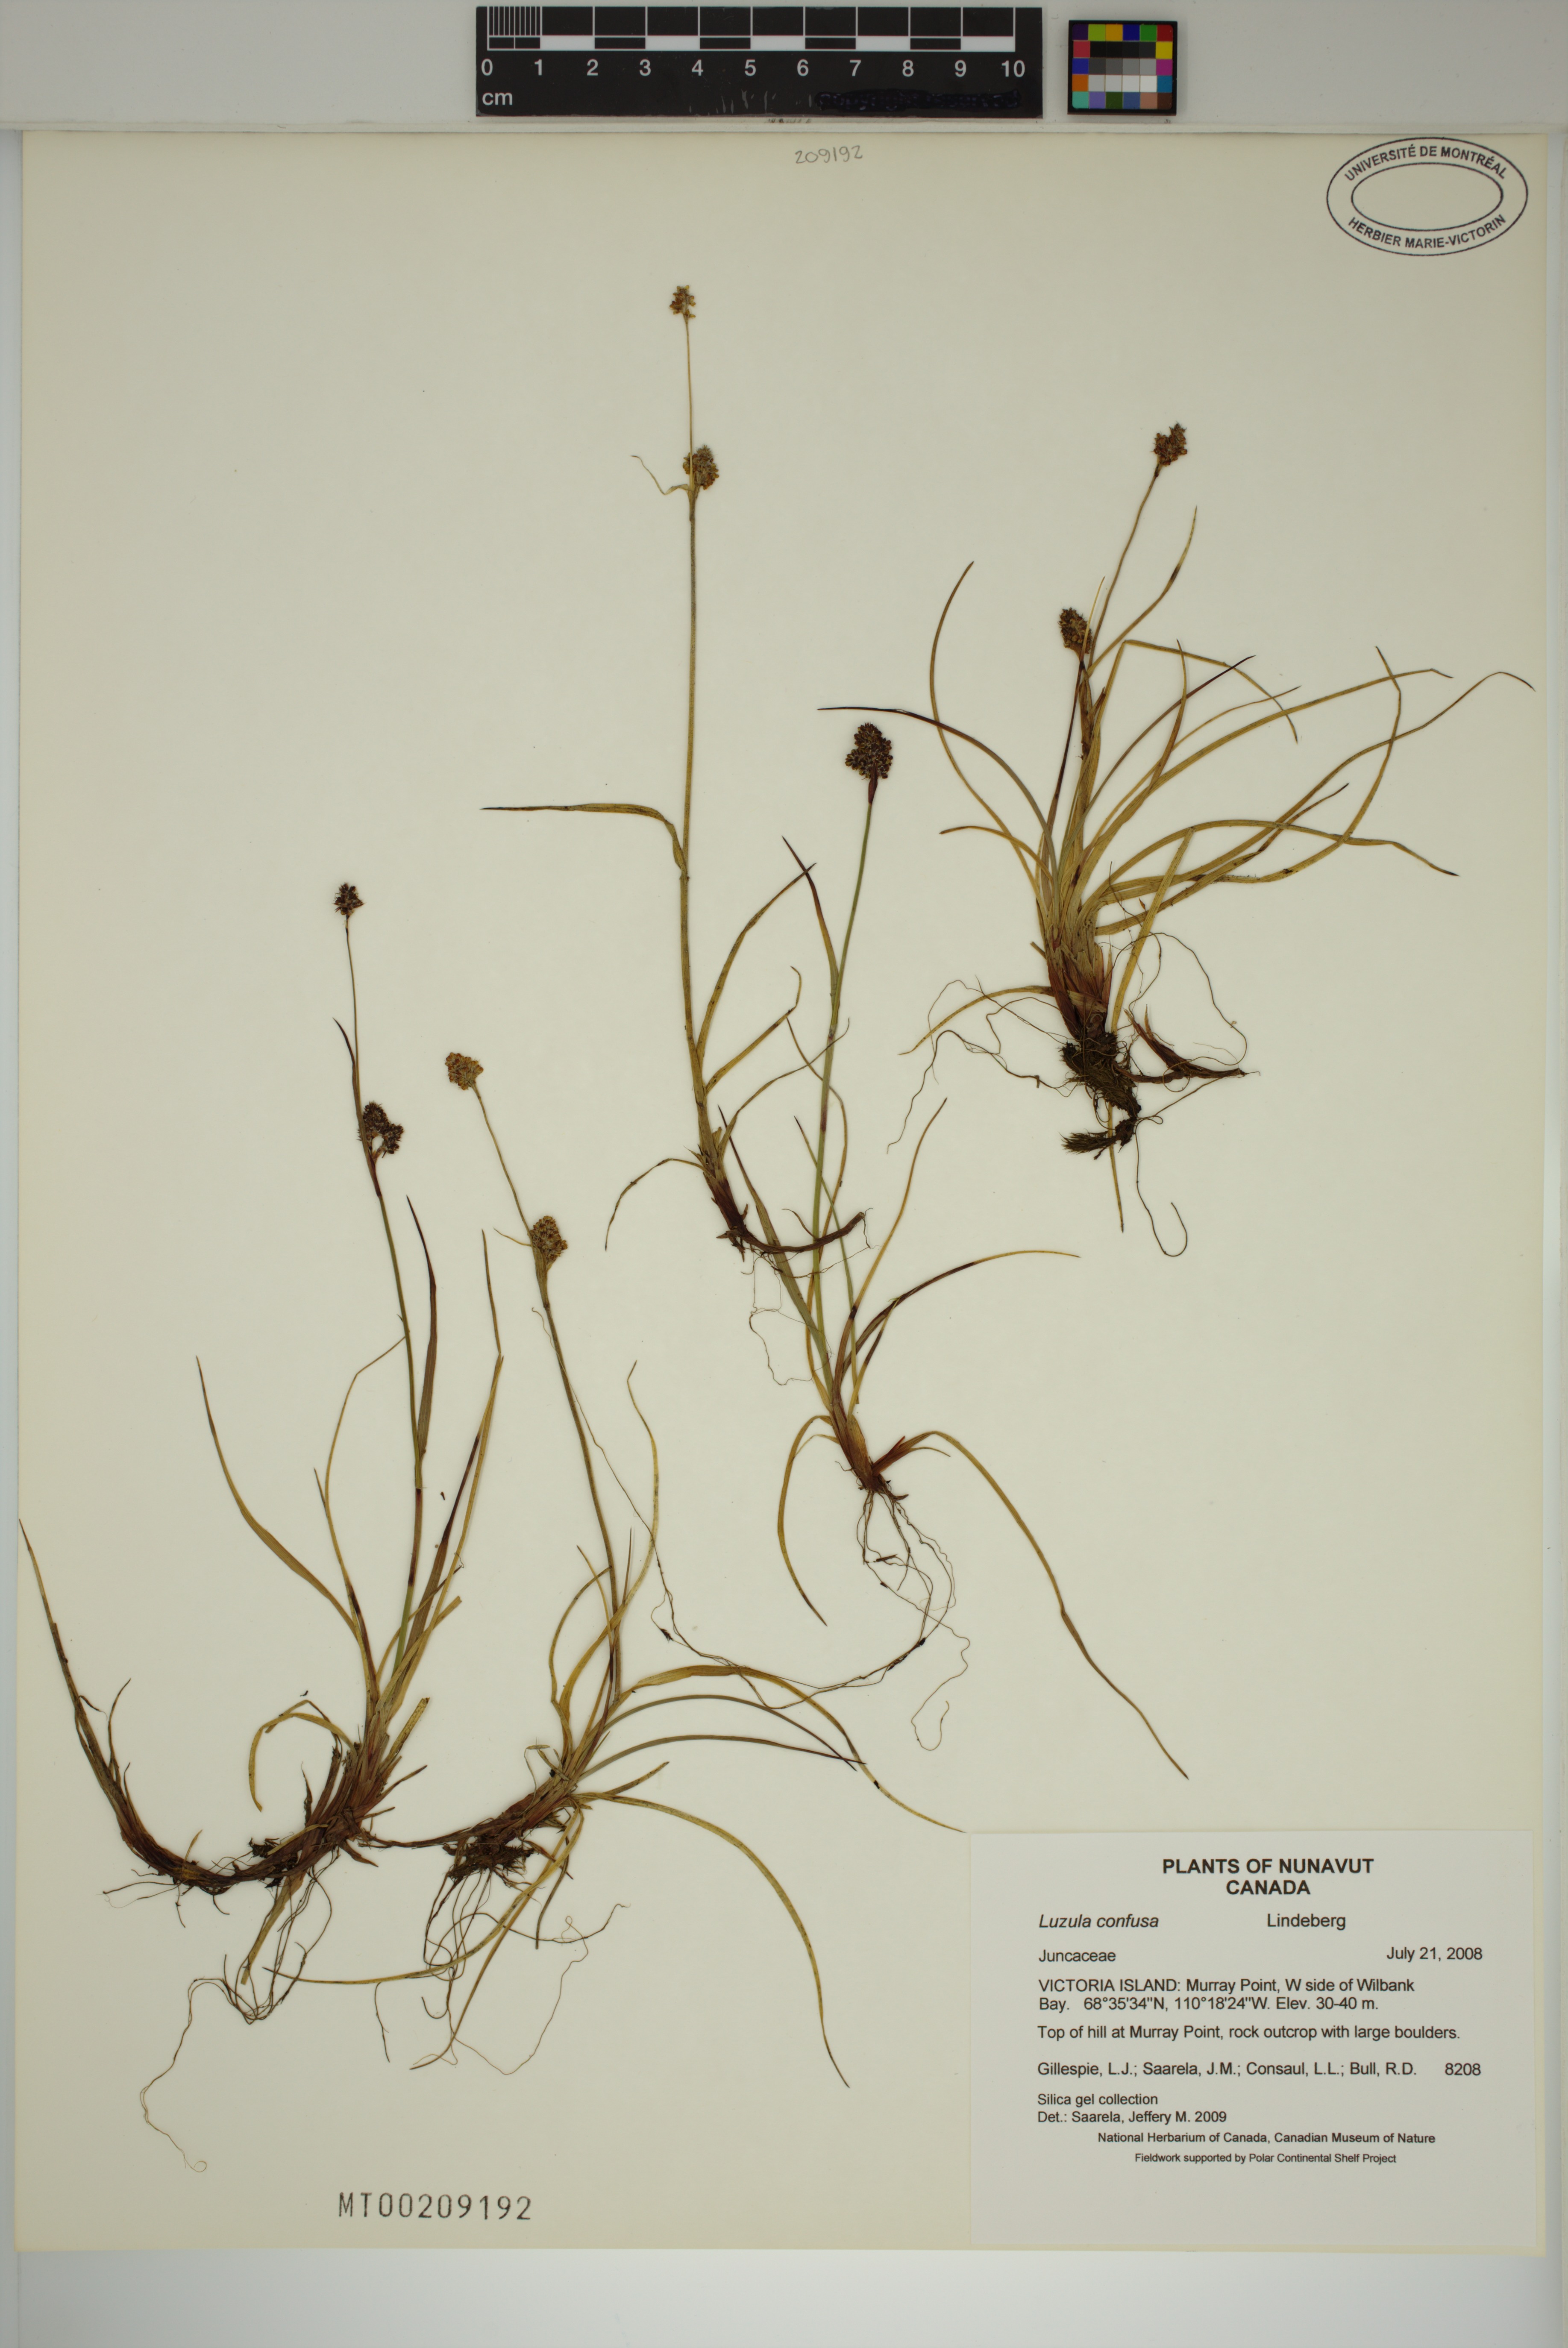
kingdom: Plantae
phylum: Tracheophyta
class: Liliopsida
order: Poales
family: Juncaceae
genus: Luzula
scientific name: Luzula confusa
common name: Northern wood rush
